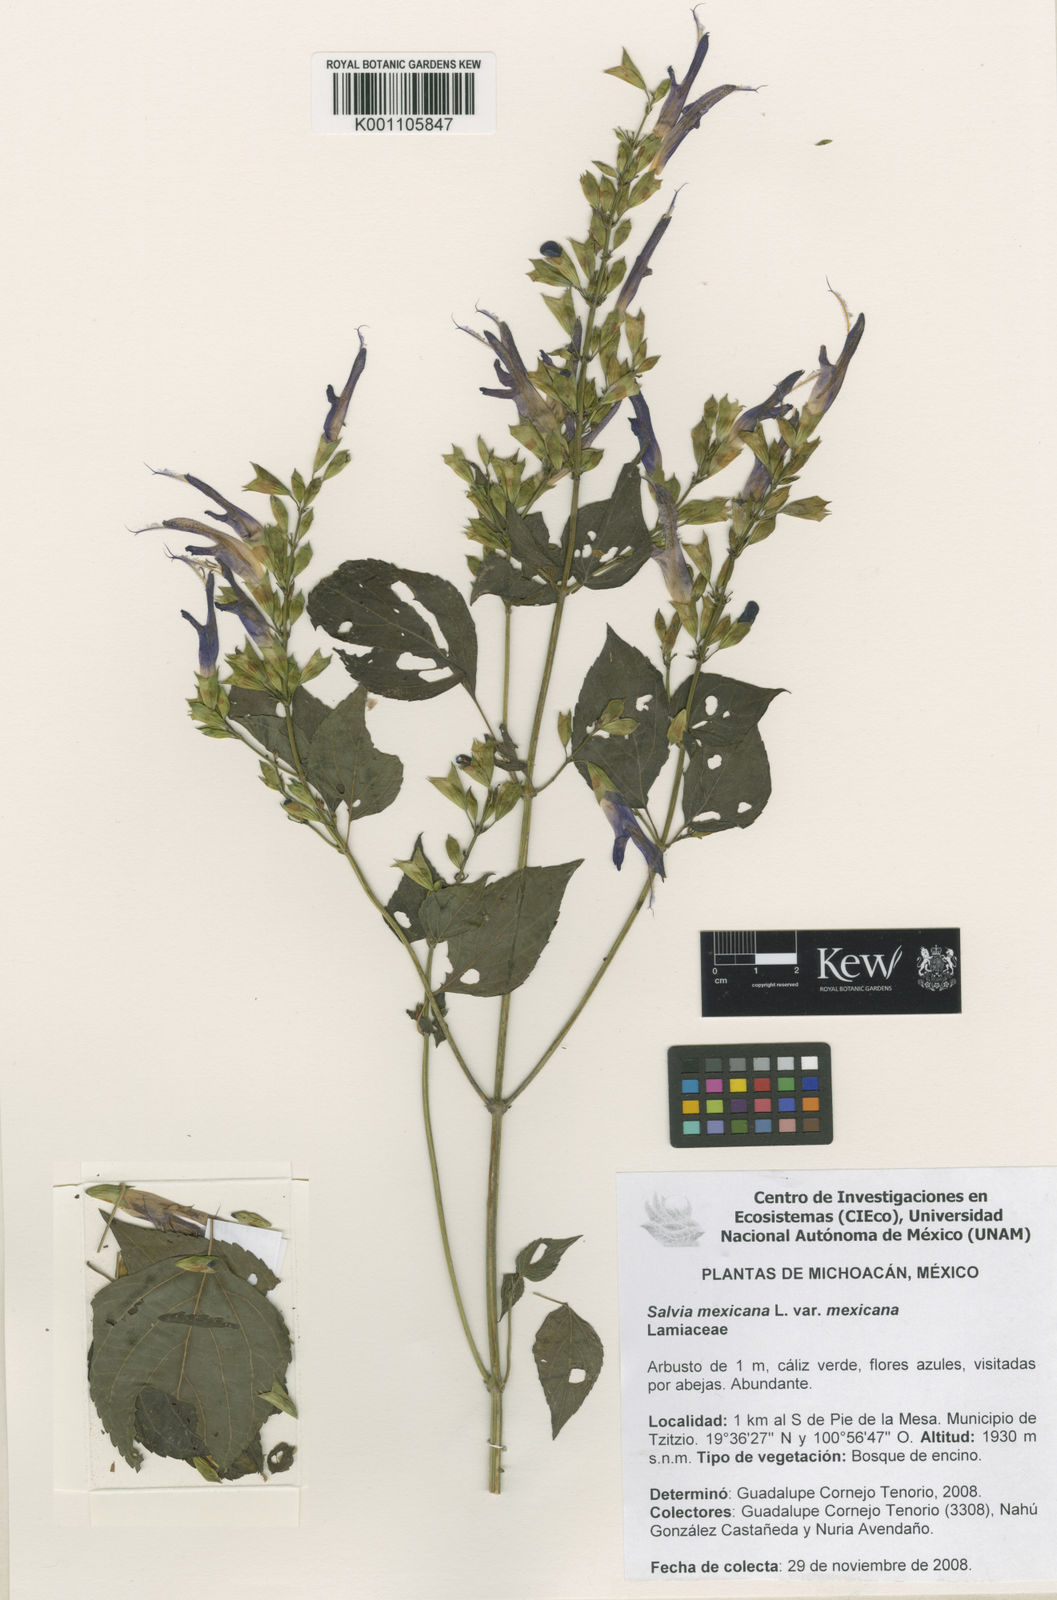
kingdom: Plantae
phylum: Tracheophyta
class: Magnoliopsida
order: Lamiales
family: Lamiaceae
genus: Salvia
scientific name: Salvia discolor
